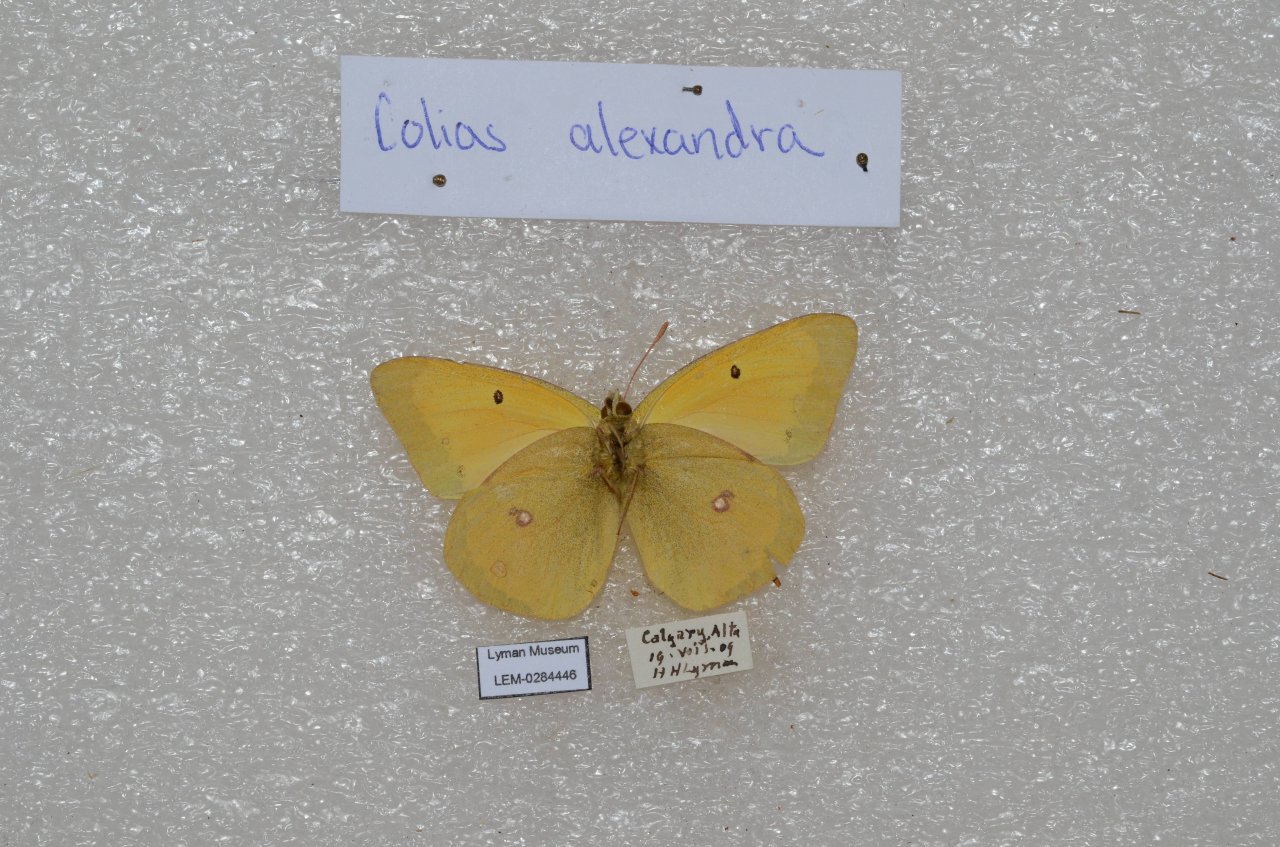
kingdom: Animalia
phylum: Arthropoda
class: Insecta
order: Lepidoptera
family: Pieridae
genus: Colias
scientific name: Colias
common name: Clouded Yellows
